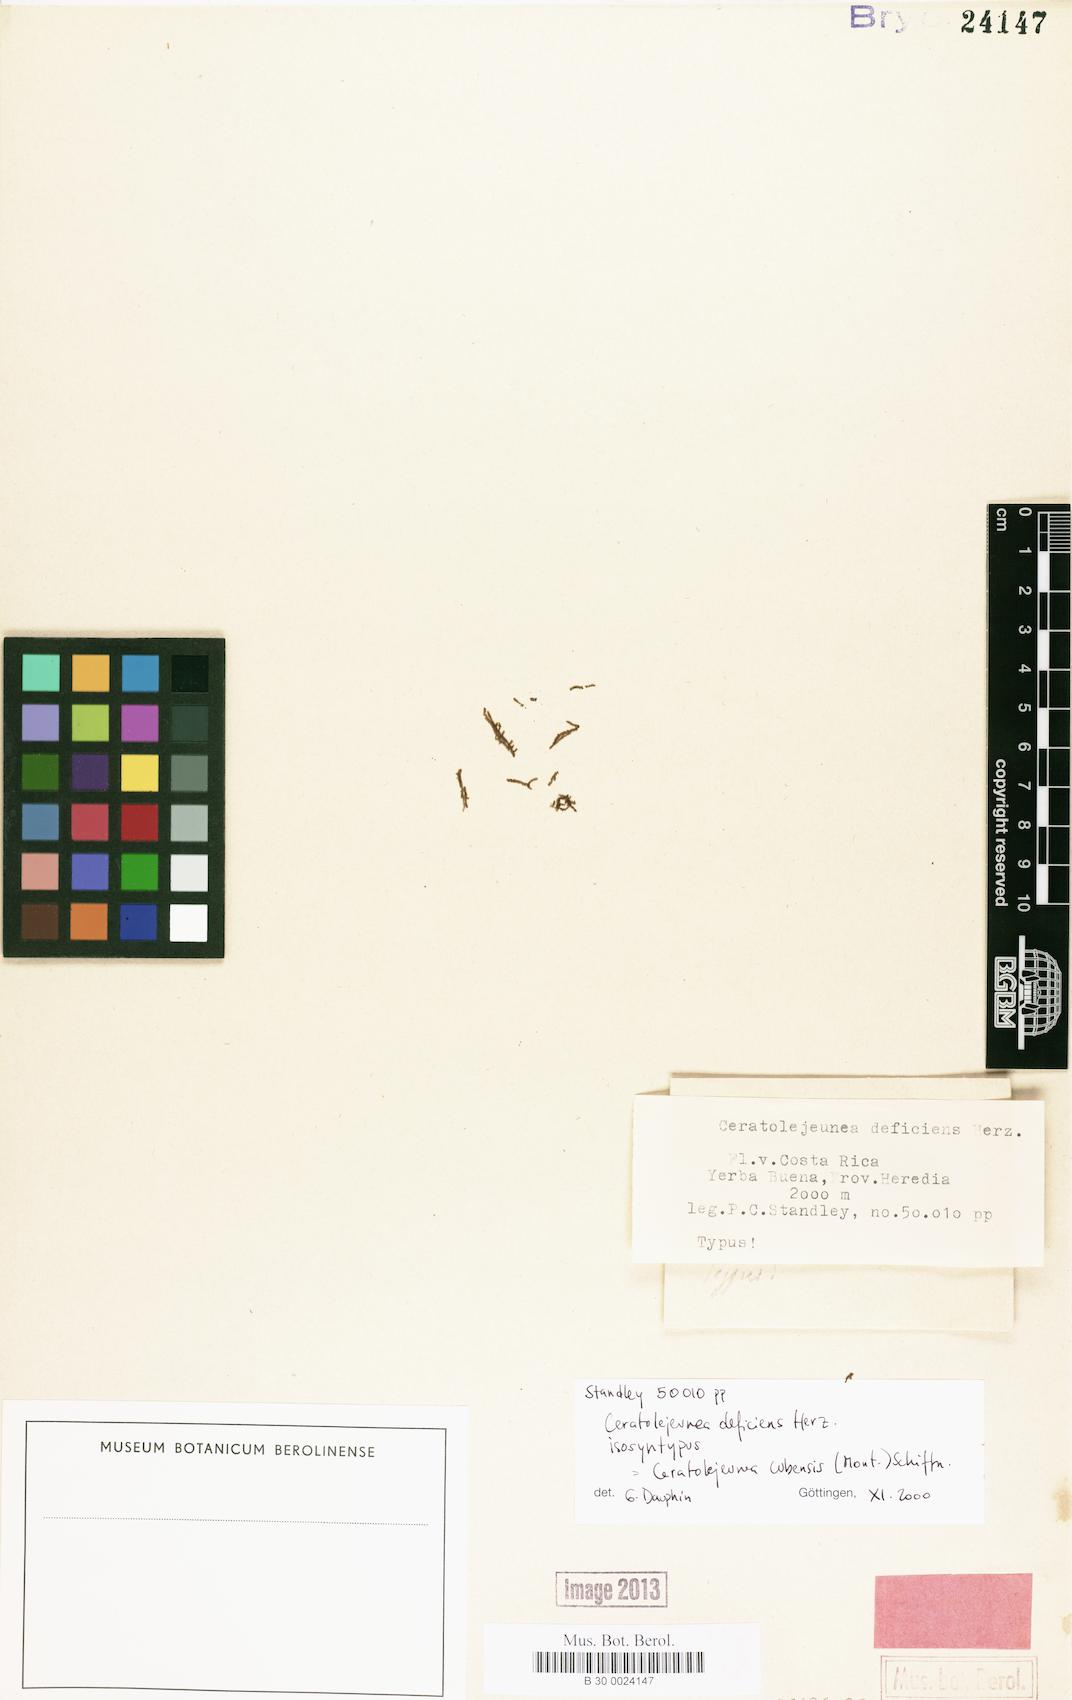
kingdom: Plantae
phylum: Marchantiophyta
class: Jungermanniopsida
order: Porellales
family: Lejeuneaceae
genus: Ceratolejeunea
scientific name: Ceratolejeunea laetefusca
